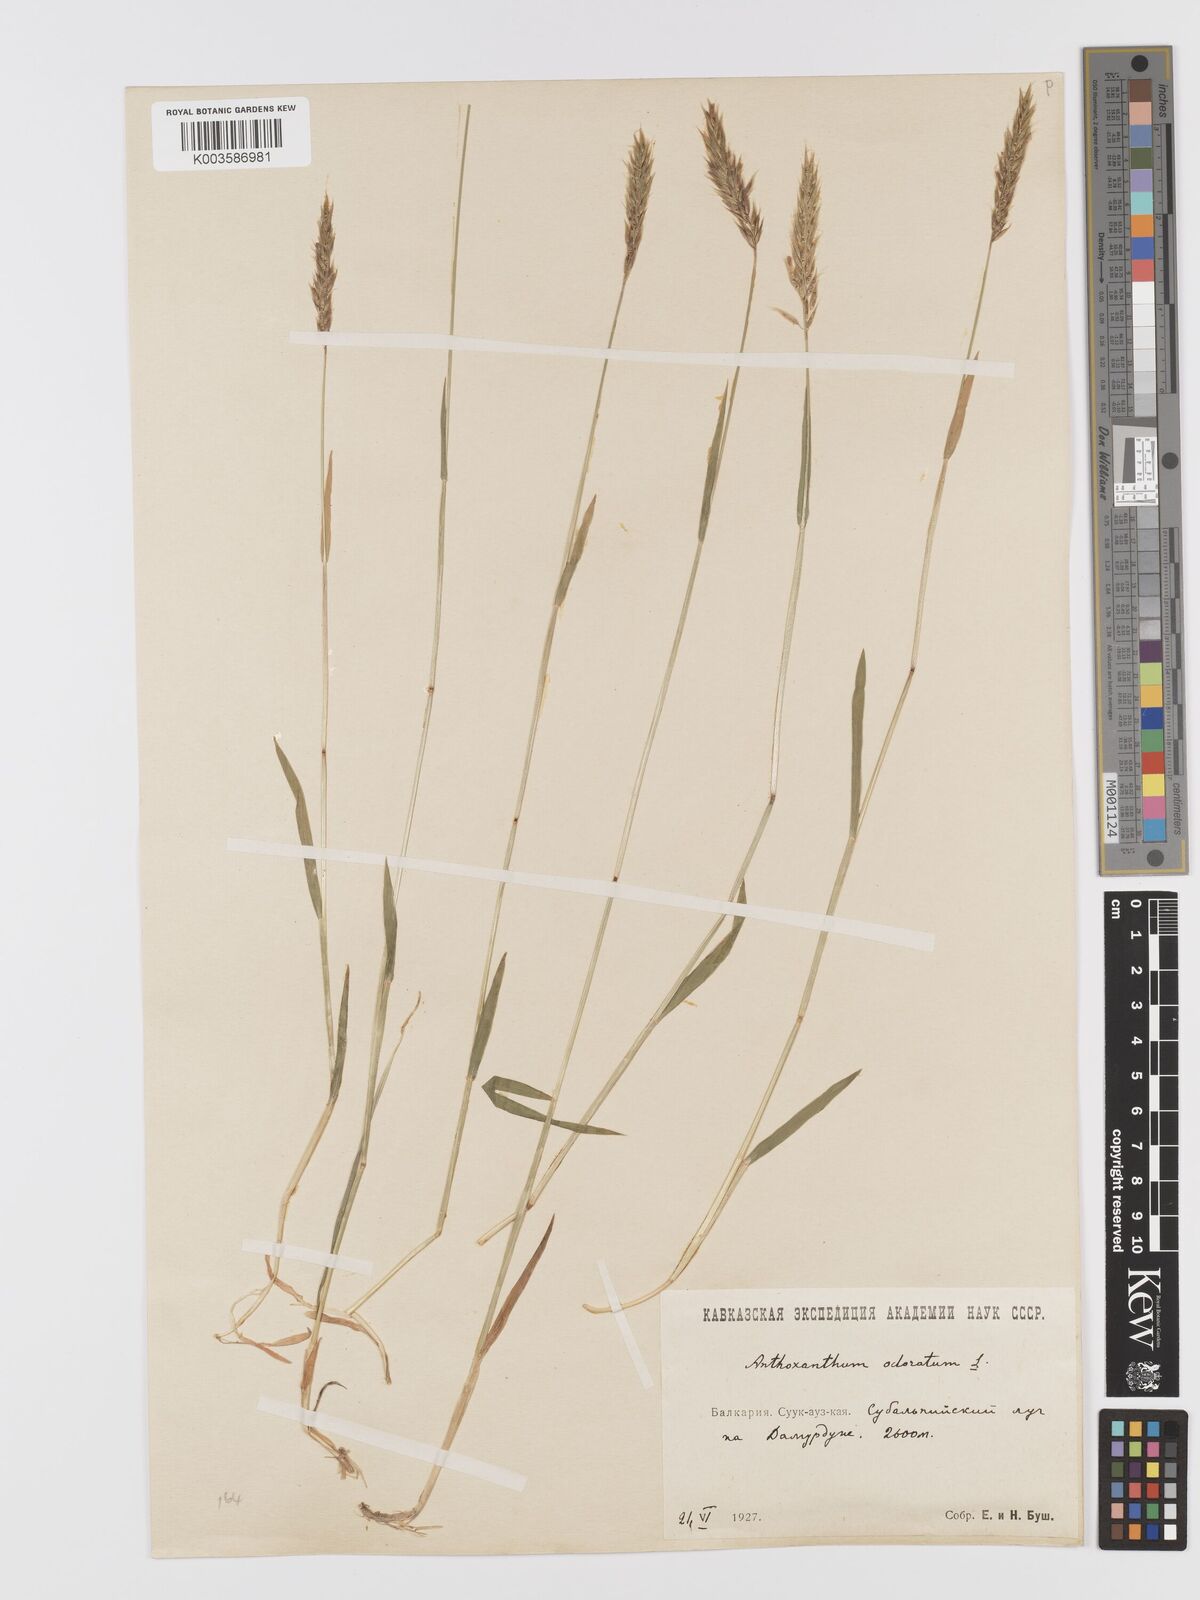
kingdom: Plantae
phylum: Tracheophyta
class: Liliopsida
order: Poales
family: Poaceae
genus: Anthoxanthum
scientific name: Anthoxanthum odoratum
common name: Sweet vernalgrass
